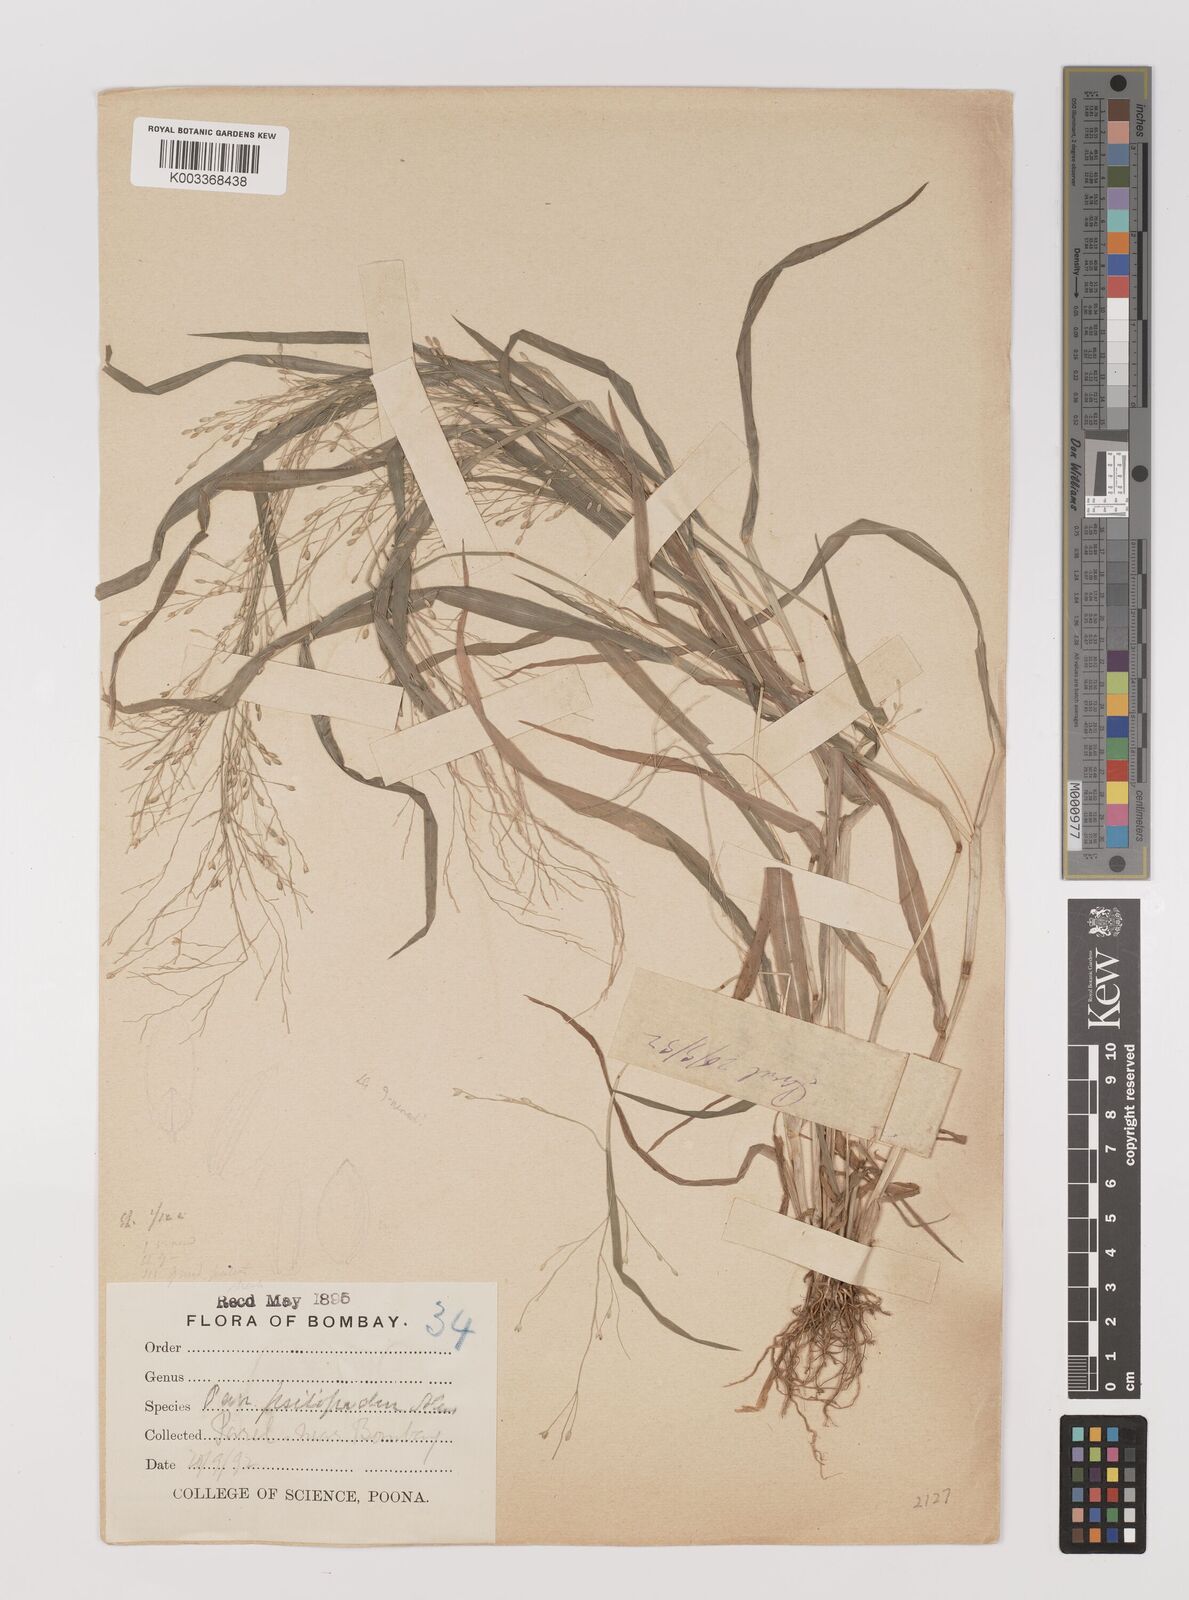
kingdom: Plantae
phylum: Tracheophyta
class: Liliopsida
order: Poales
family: Poaceae
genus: Panicum
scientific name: Panicum sumatrense
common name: Little millet
